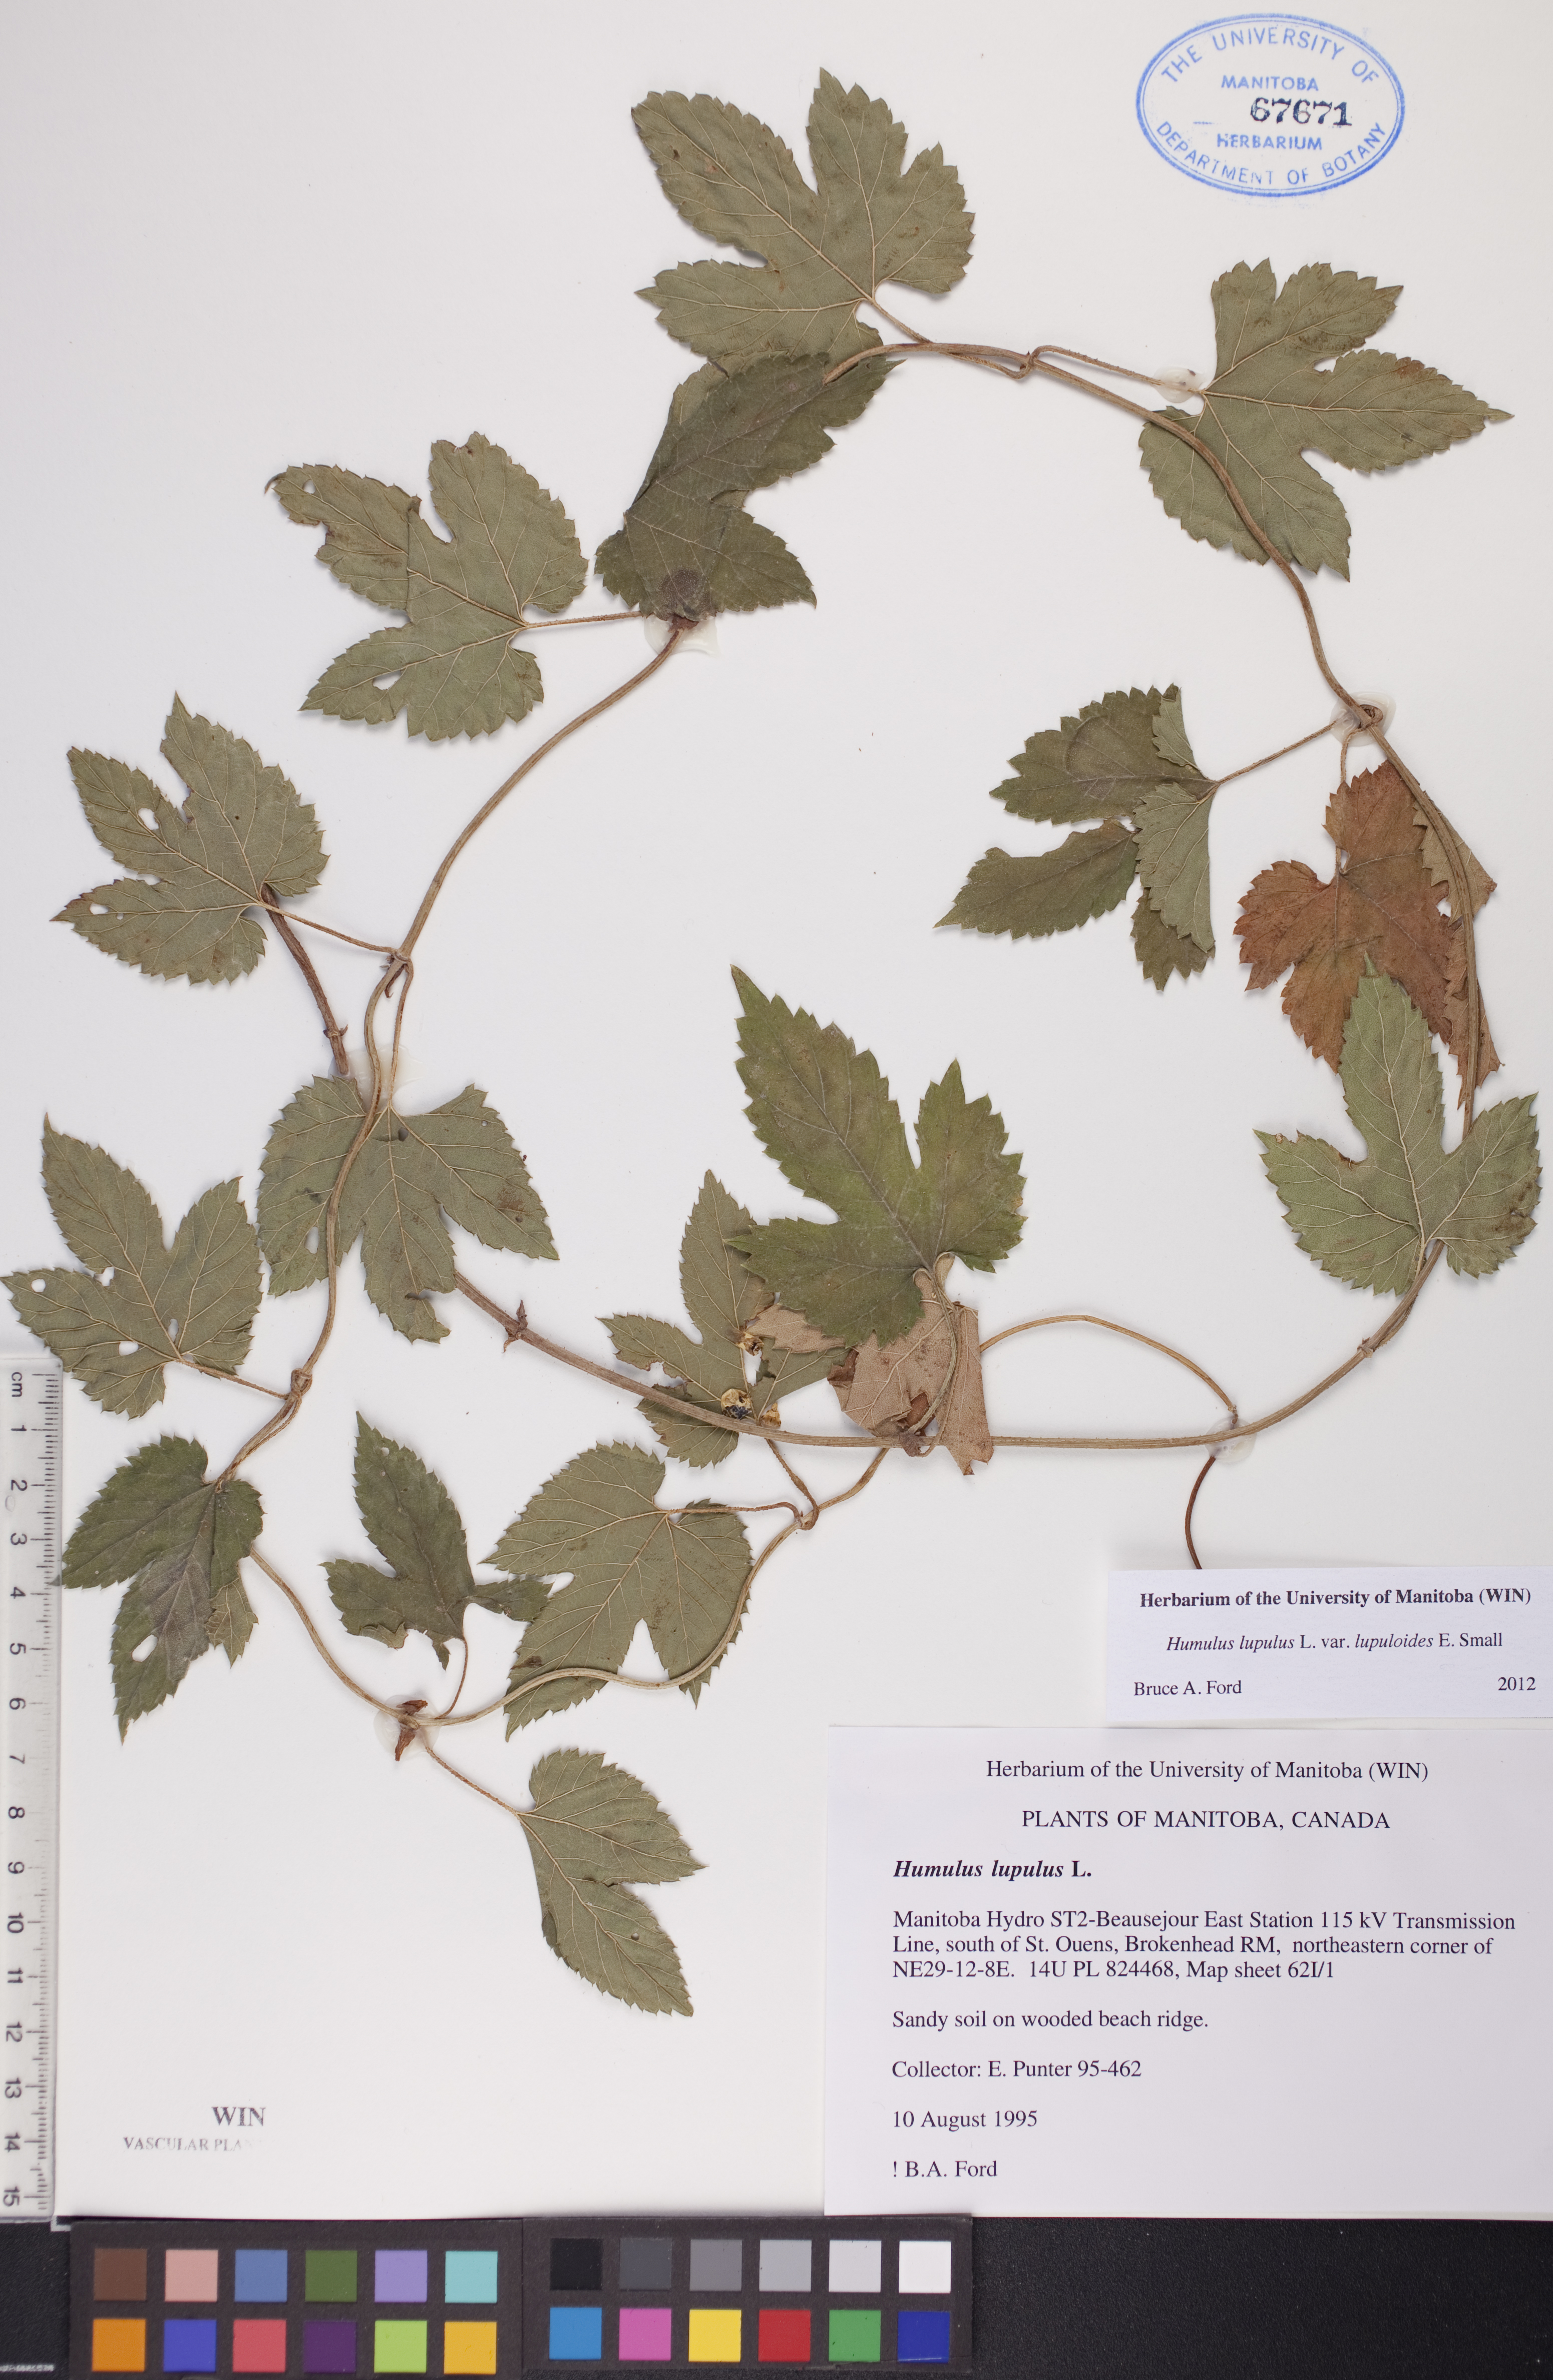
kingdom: Plantae
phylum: Tracheophyta
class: Magnoliopsida
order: Rosales
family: Cannabaceae
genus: Humulus
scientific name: Humulus americanus
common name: American hops
